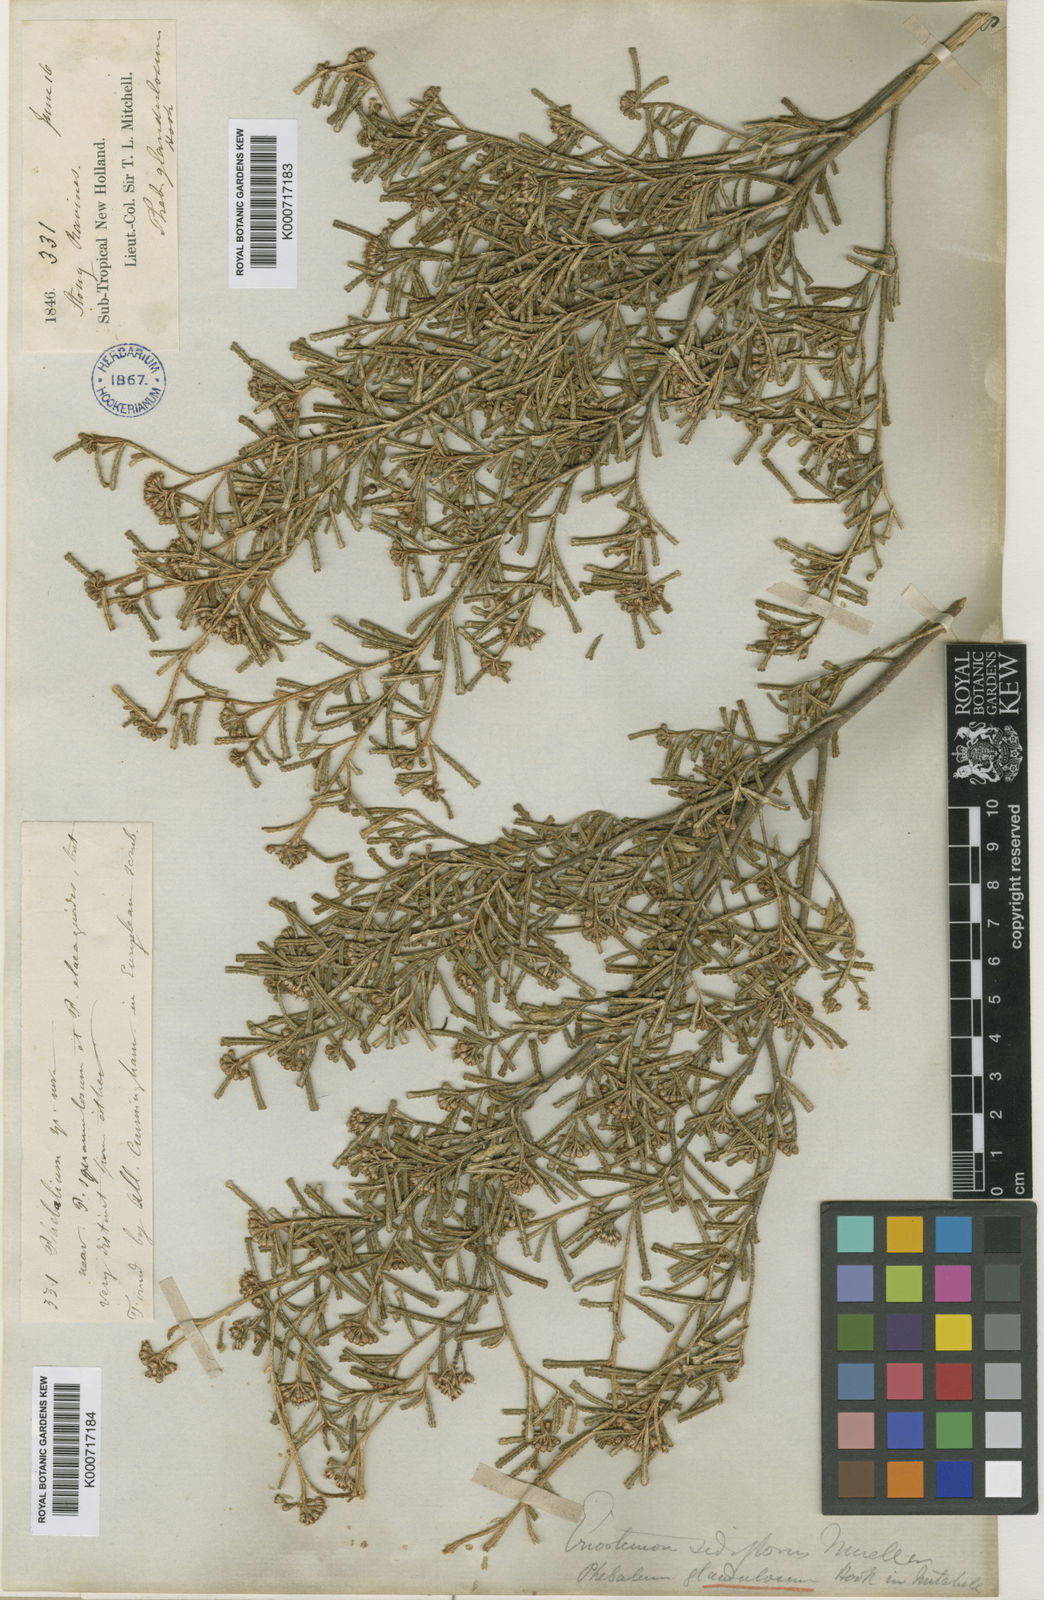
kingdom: Plantae
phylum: Tracheophyta
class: Magnoliopsida
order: Sapindales
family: Rutaceae
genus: Phebalium
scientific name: Phebalium glandulosum
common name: Desert phebalium
